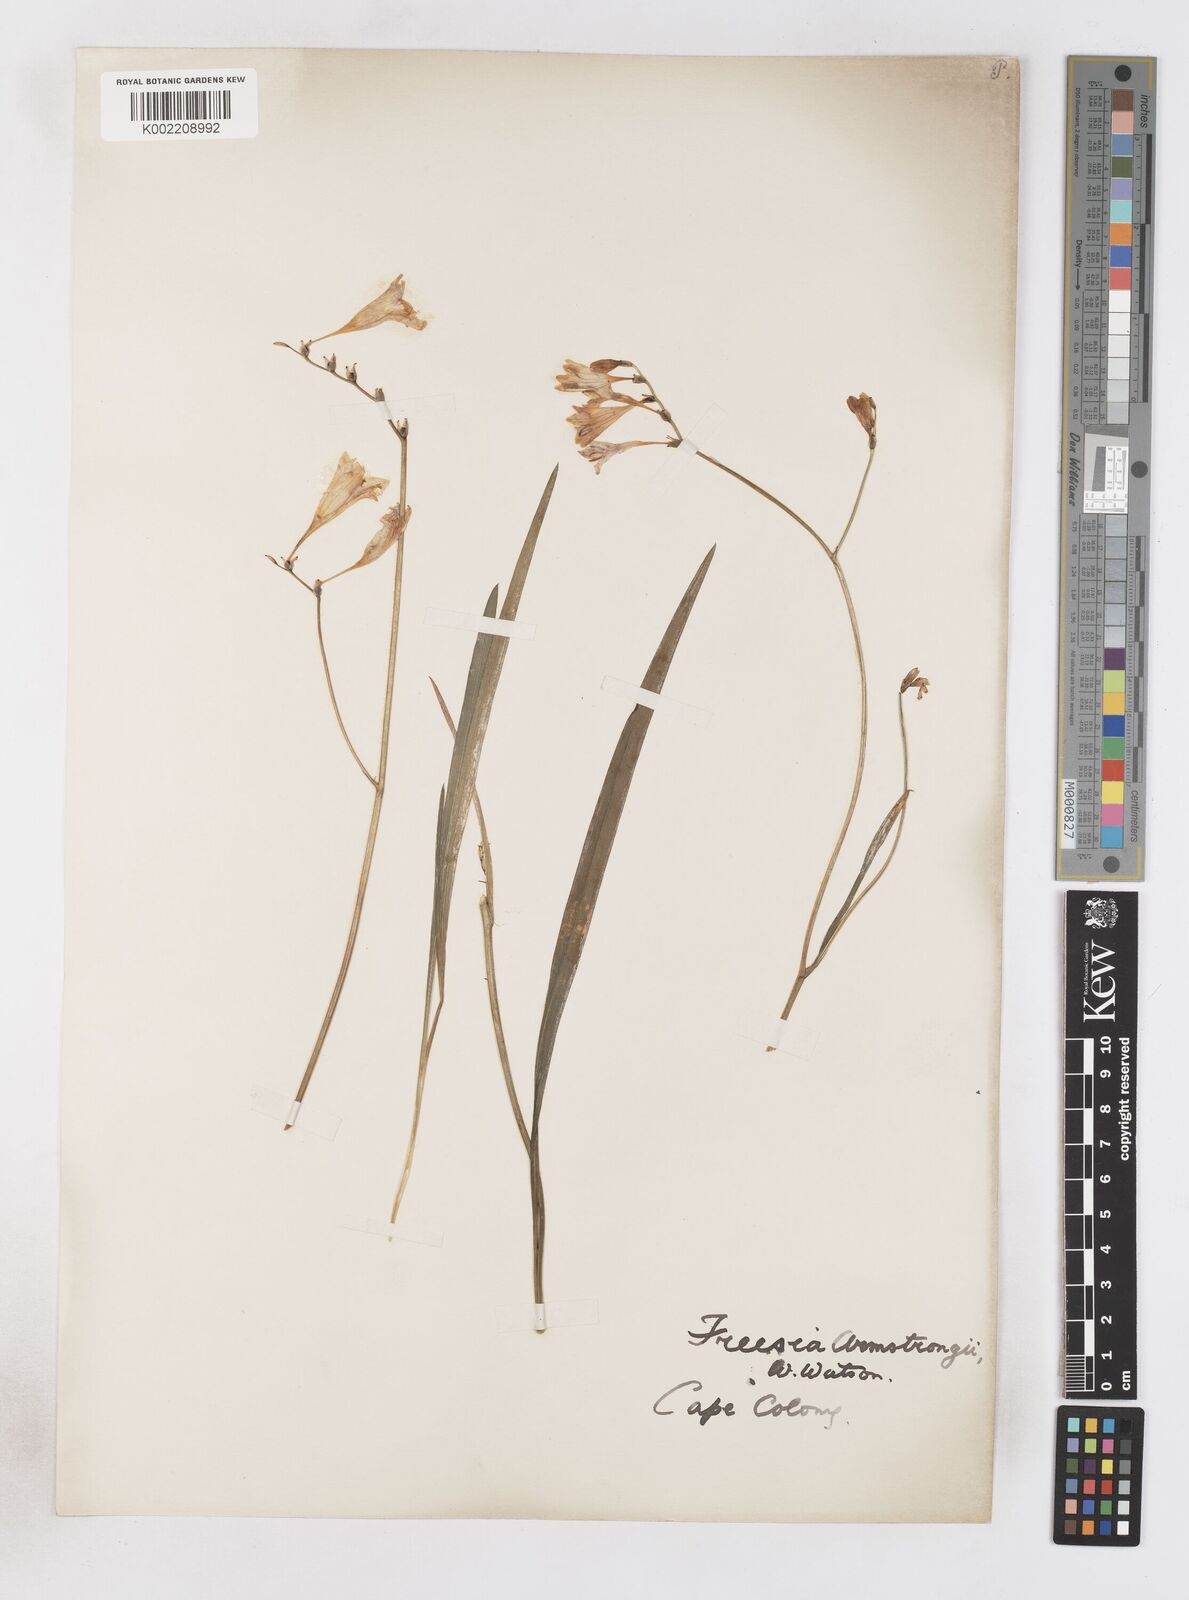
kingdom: Plantae
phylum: Tracheophyta
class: Liliopsida
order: Asparagales
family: Iridaceae
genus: Freesia
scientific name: Freesia corymbosa
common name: Common freesia
